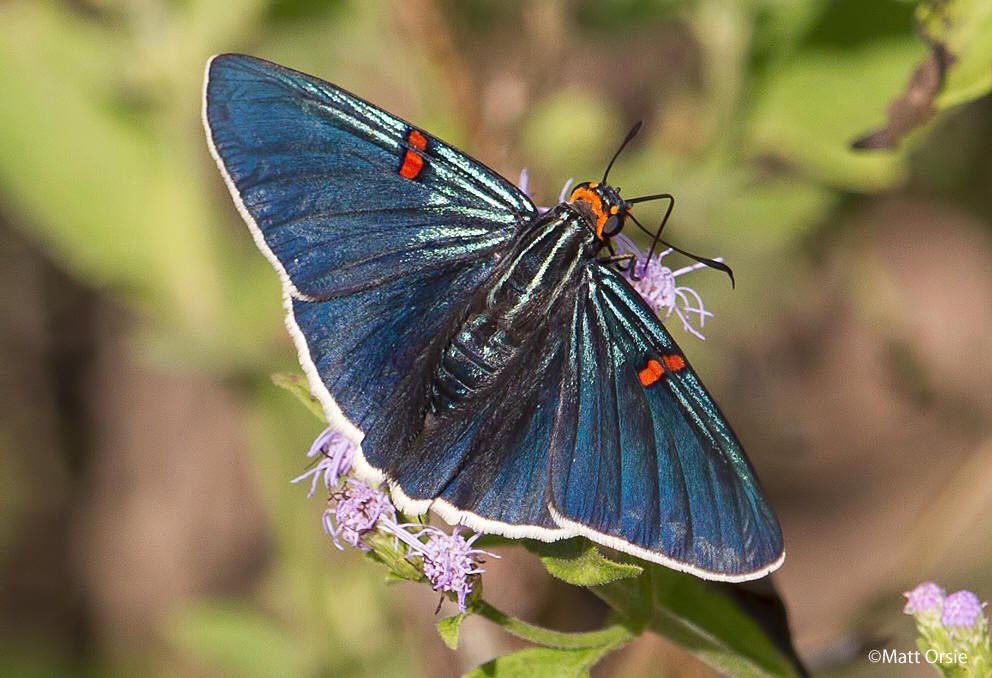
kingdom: Animalia
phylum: Arthropoda
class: Insecta
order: Lepidoptera
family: Hesperiidae
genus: Phocides
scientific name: Phocides polybius
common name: Guava Skipper
